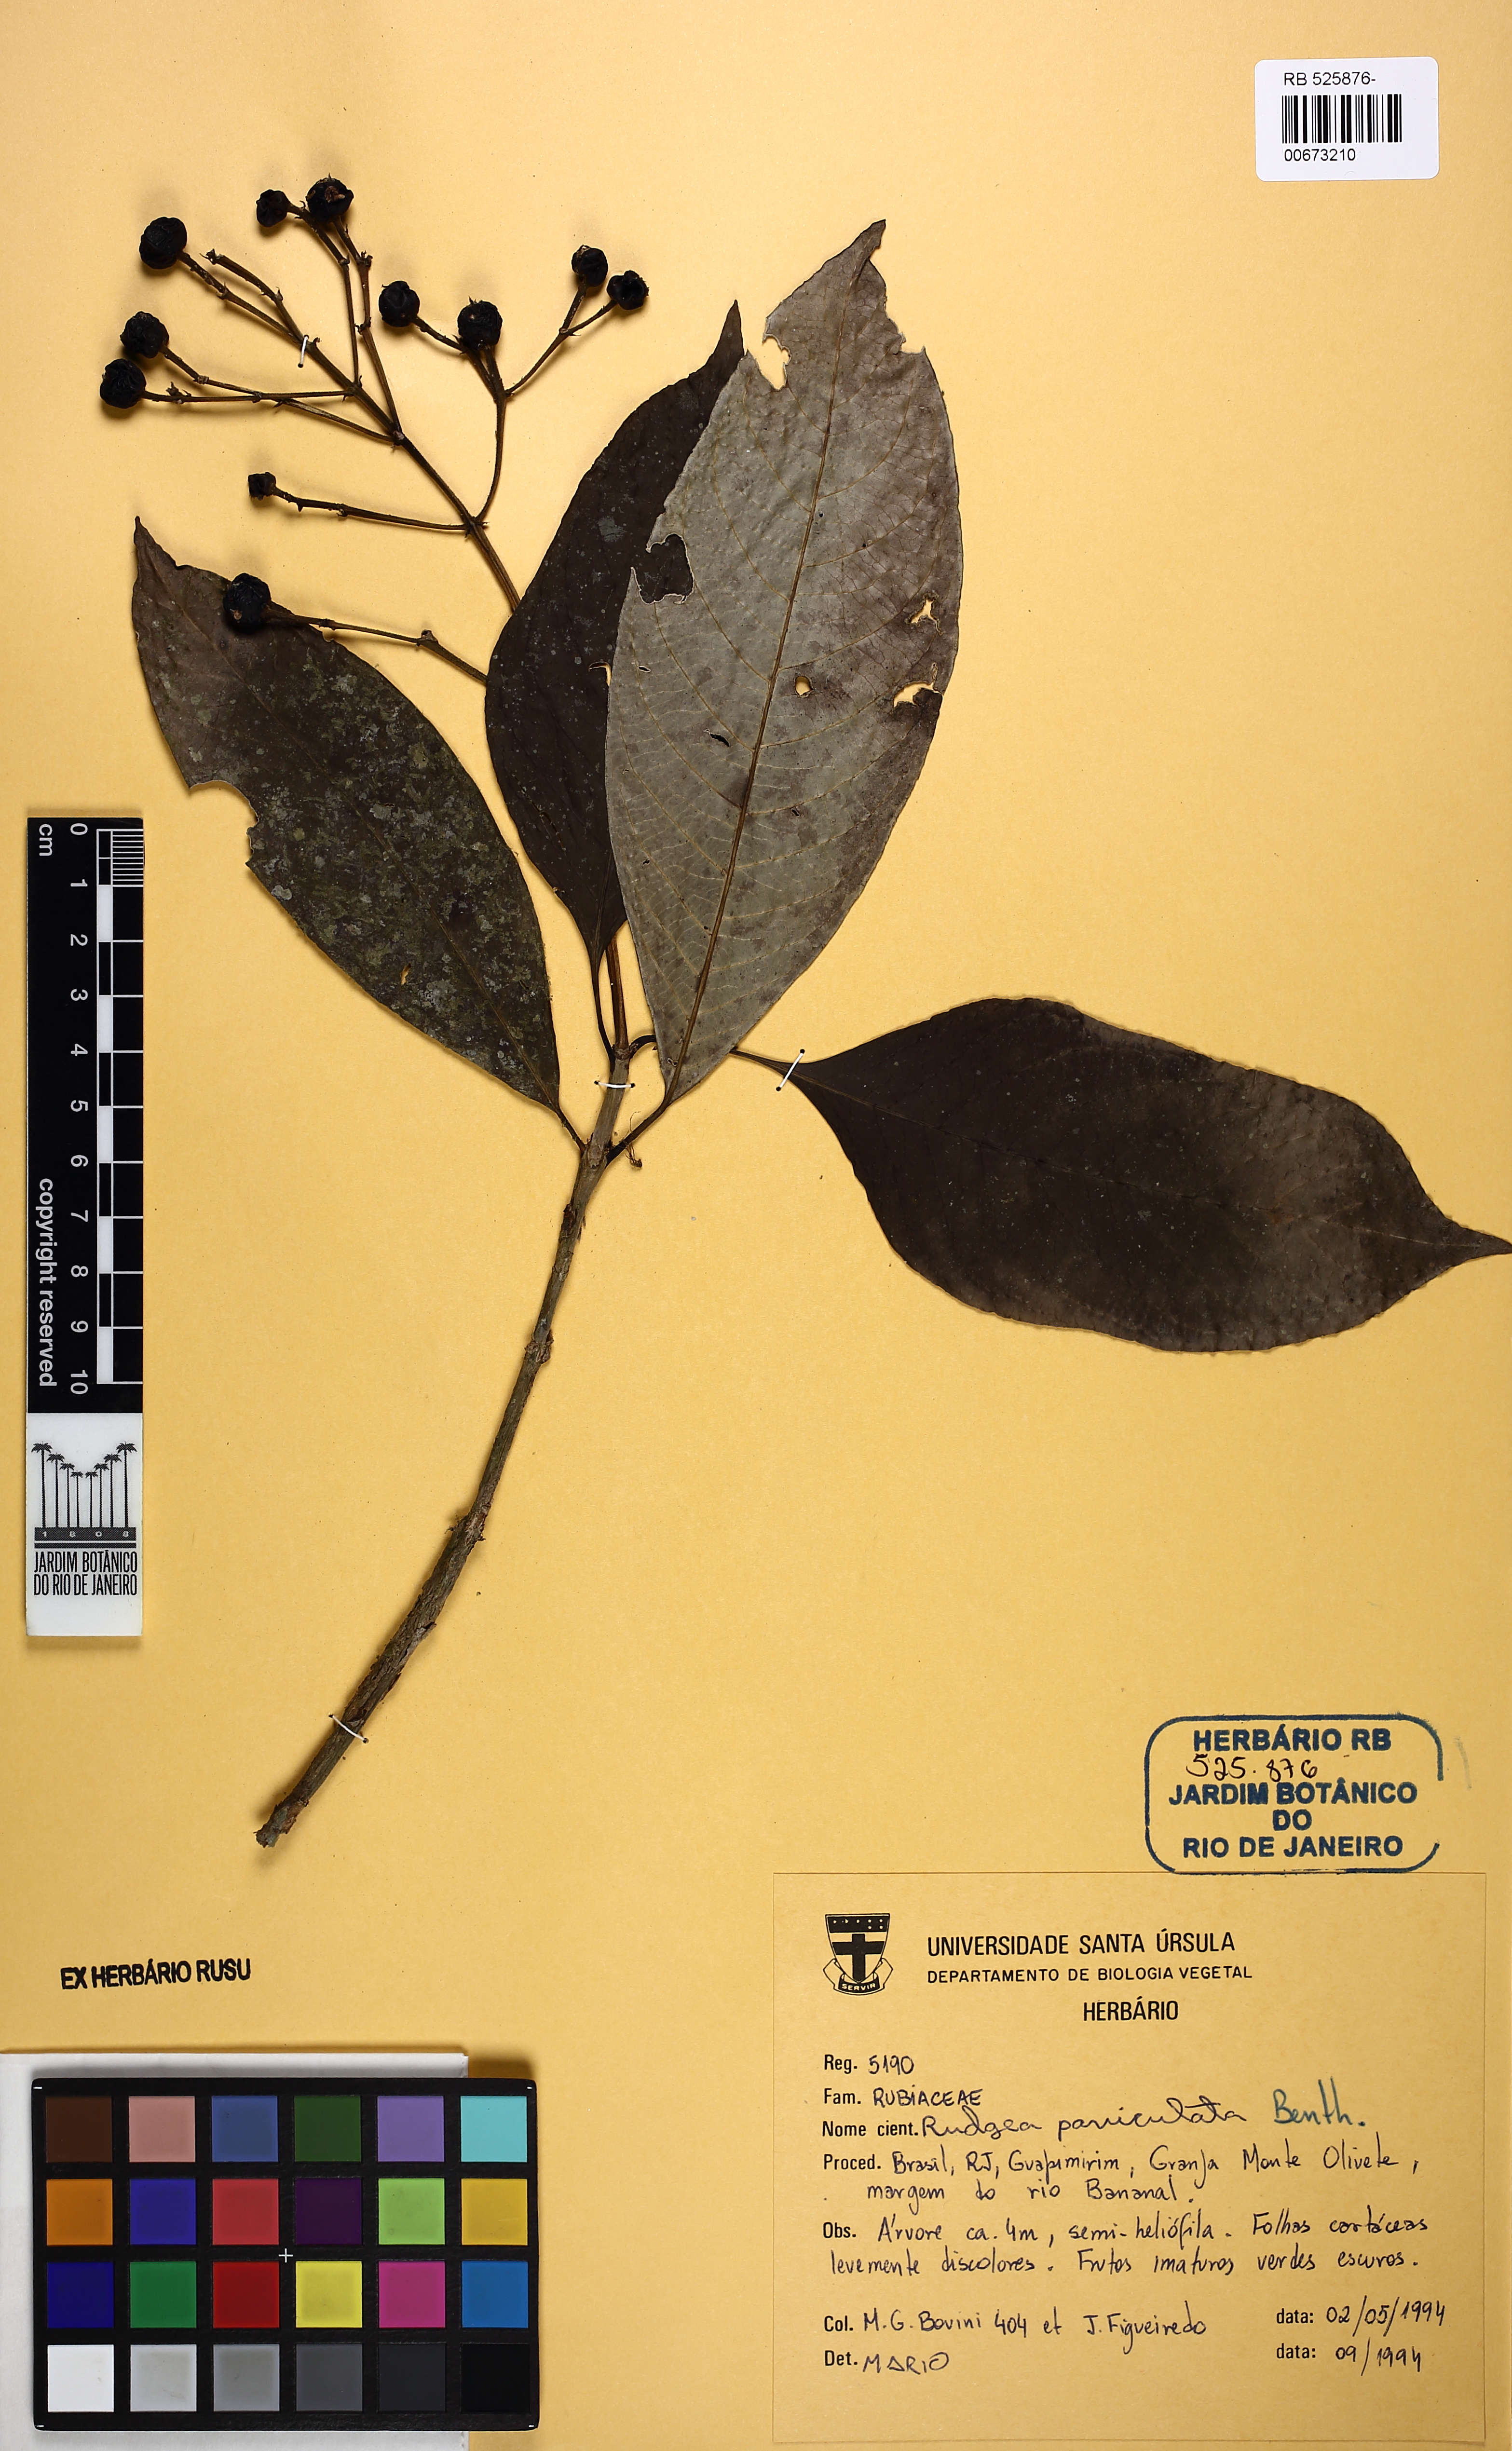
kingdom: Plantae
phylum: Tracheophyta
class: Magnoliopsida
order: Gentianales
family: Rubiaceae
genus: Rudgea
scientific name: Rudgea jasminoides
